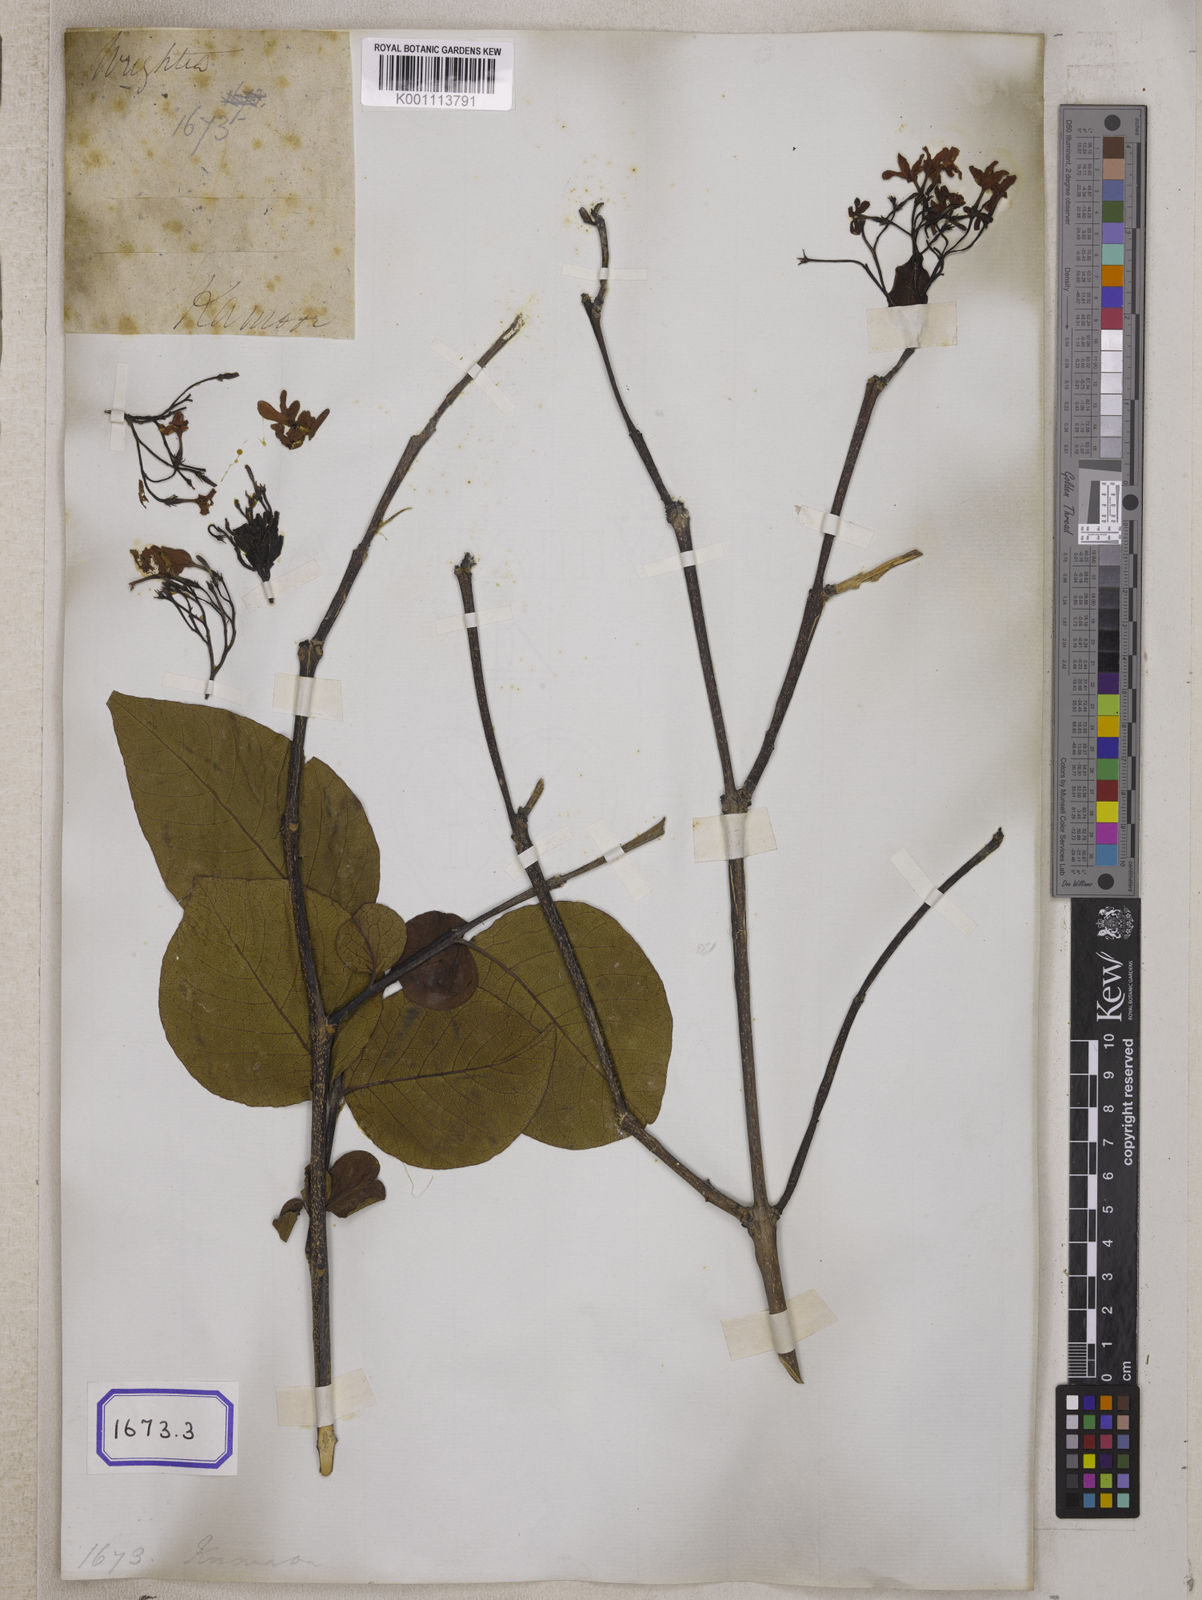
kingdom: Plantae
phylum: Tracheophyta
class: Magnoliopsida
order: Gentianales
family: Apocynaceae
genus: Holarrhena
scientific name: Holarrhena
